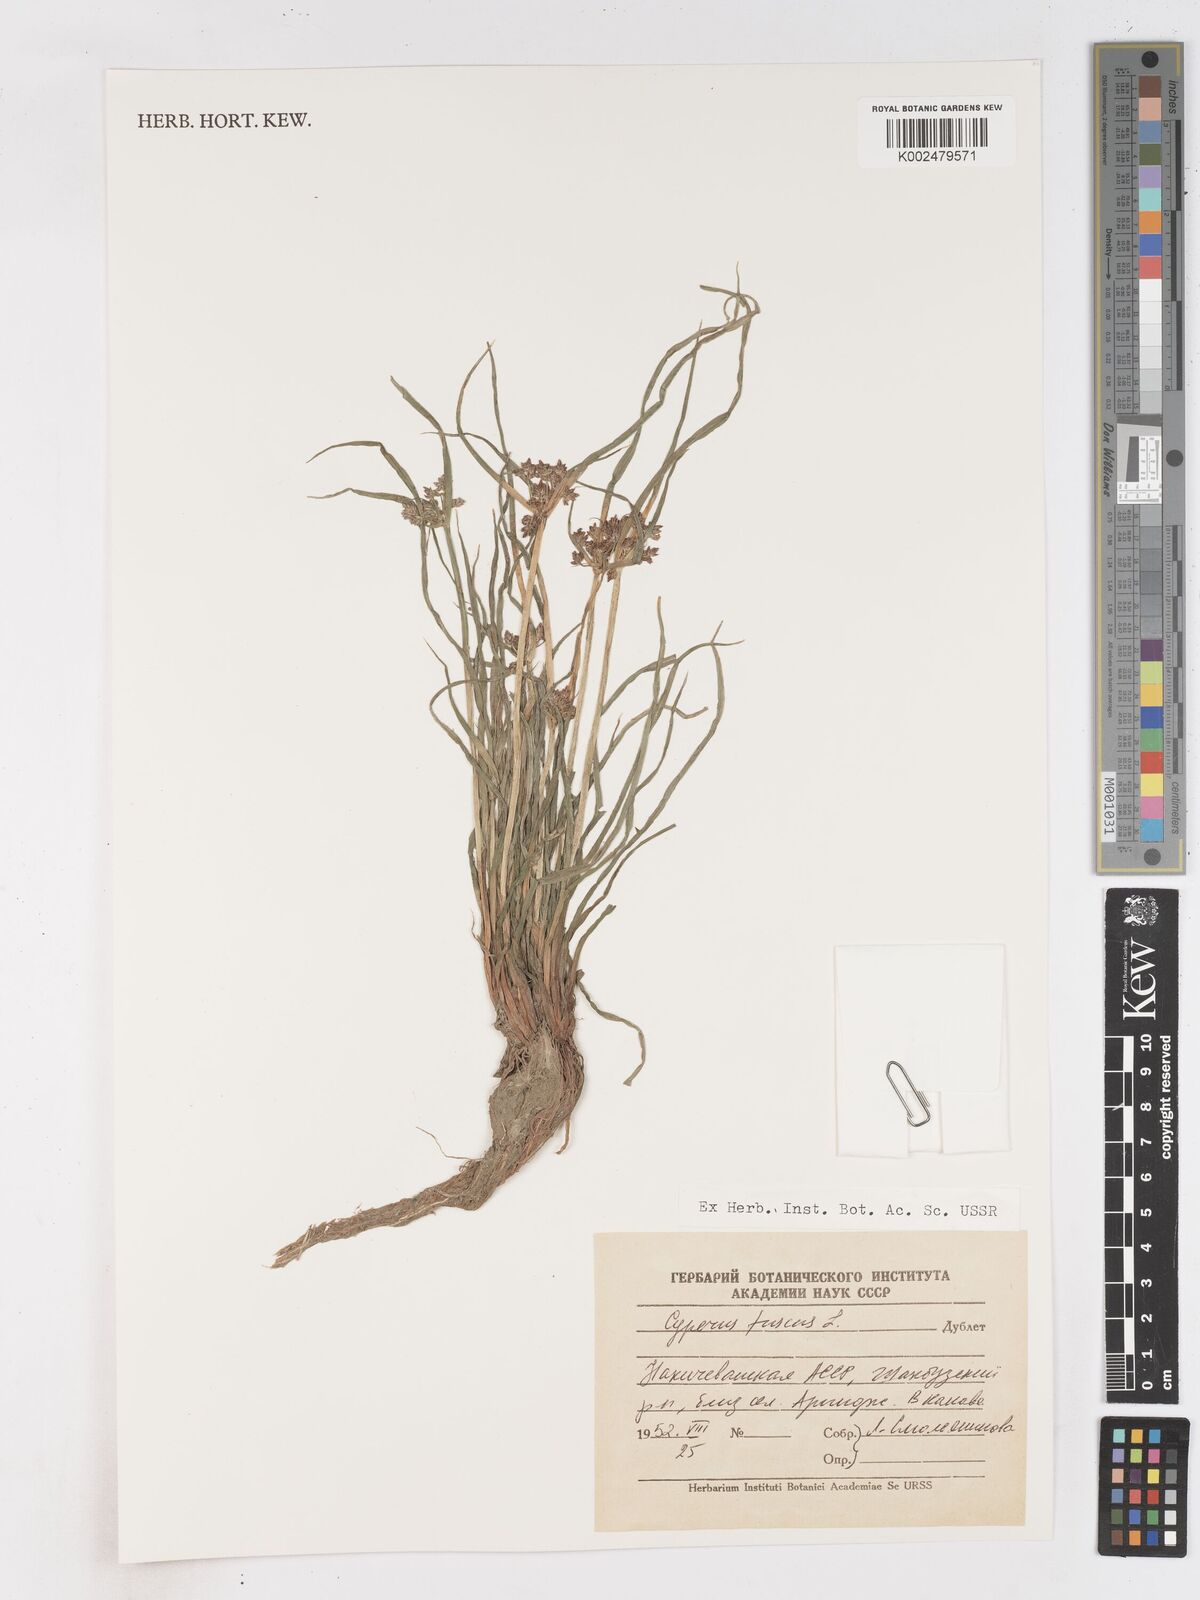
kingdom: Plantae
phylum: Tracheophyta
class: Liliopsida
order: Poales
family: Cyperaceae
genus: Cyperus
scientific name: Cyperus fuscus
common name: Brown galingale
